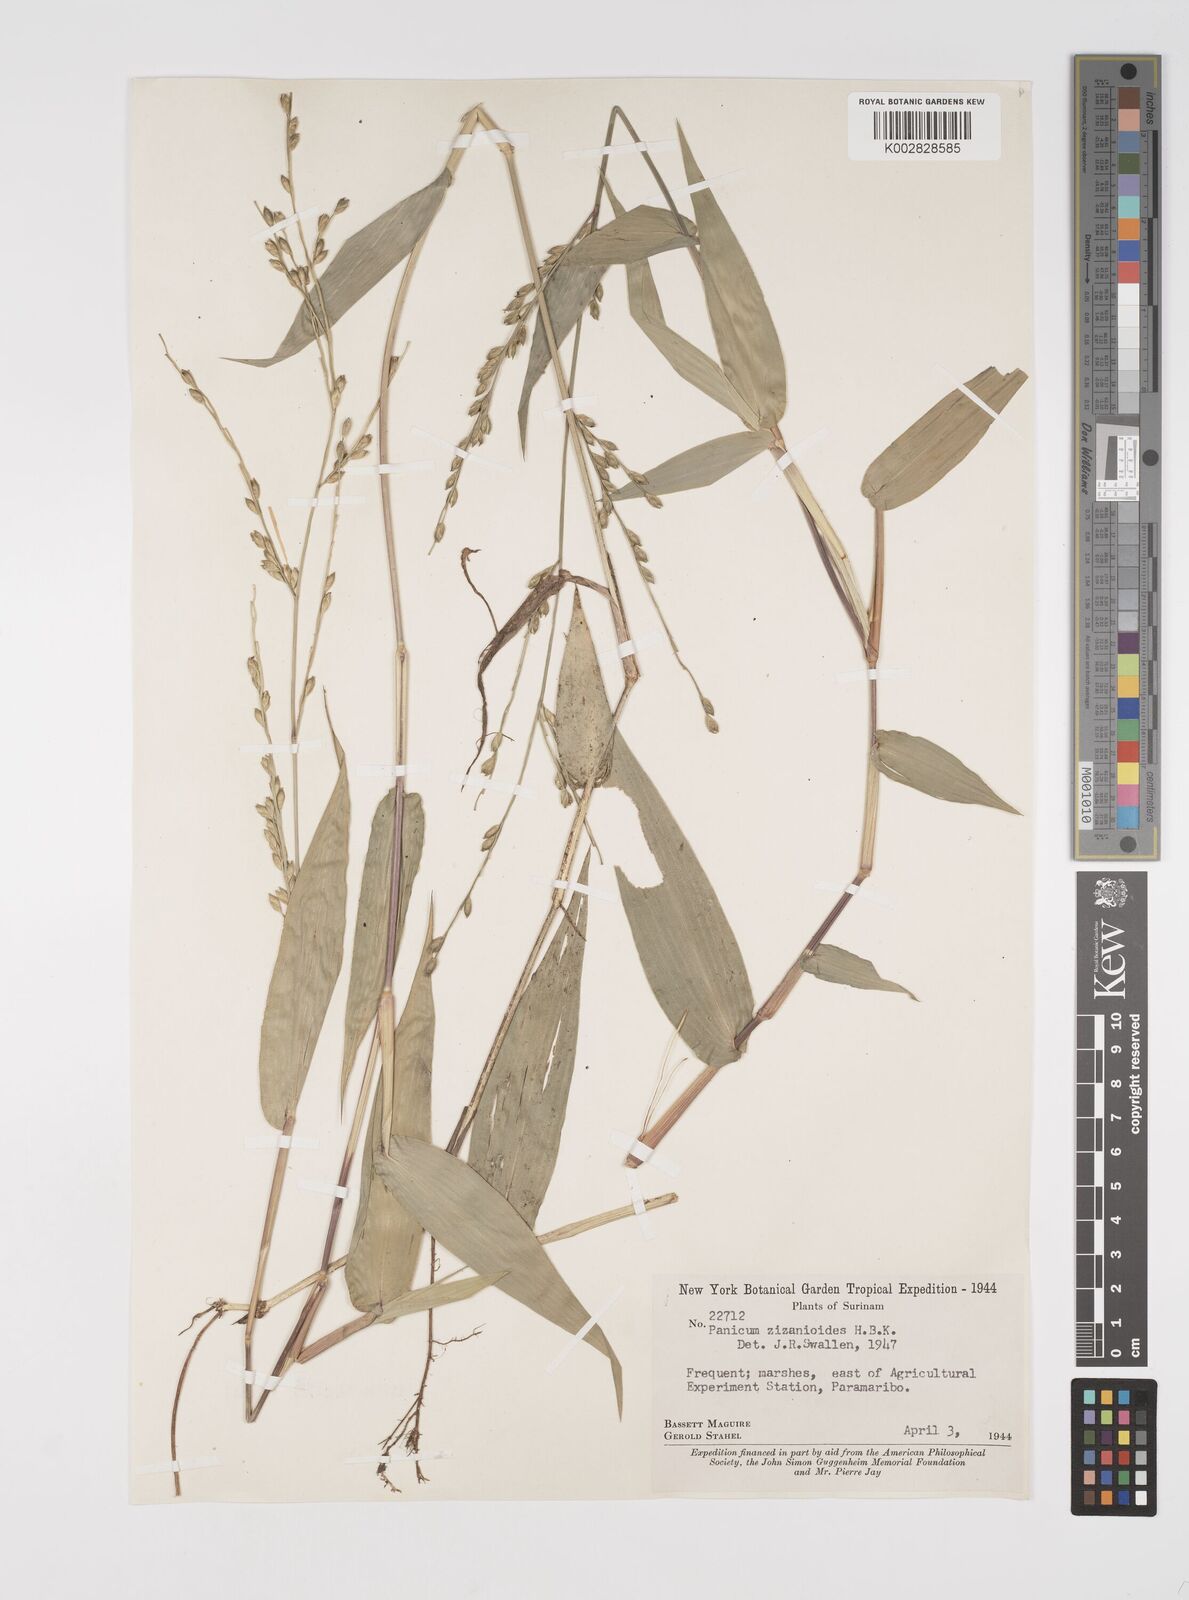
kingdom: Plantae
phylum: Tracheophyta
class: Liliopsida
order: Poales
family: Poaceae
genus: Acroceras
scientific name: Acroceras zizanioides
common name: Oat grass
